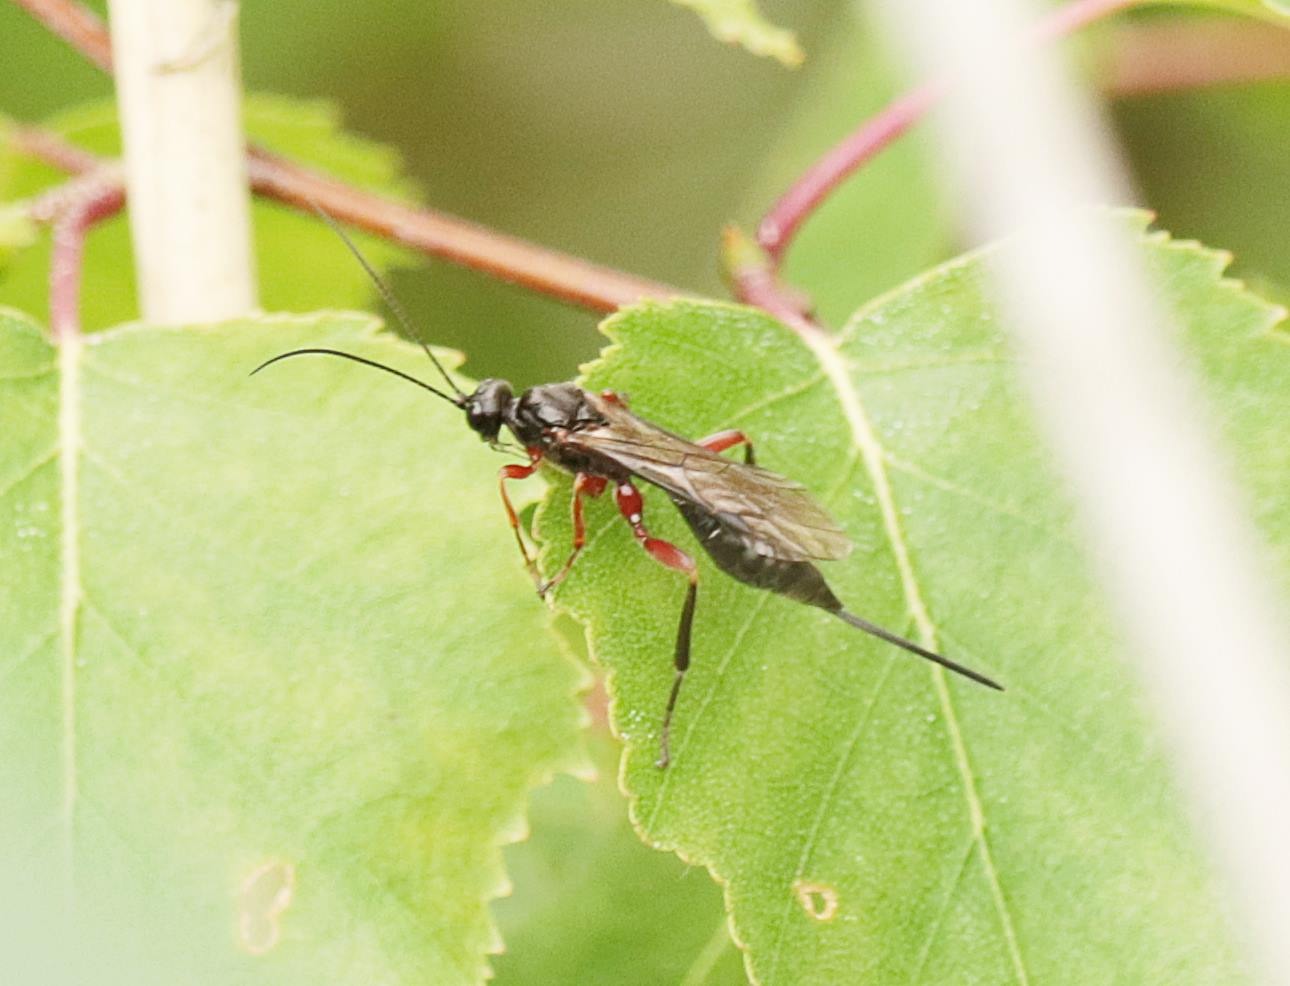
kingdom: Animalia
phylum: Arthropoda
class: Insecta
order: Hymenoptera
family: Ichneumonidae
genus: Ischnoceros
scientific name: Ischnoceros rusticus
